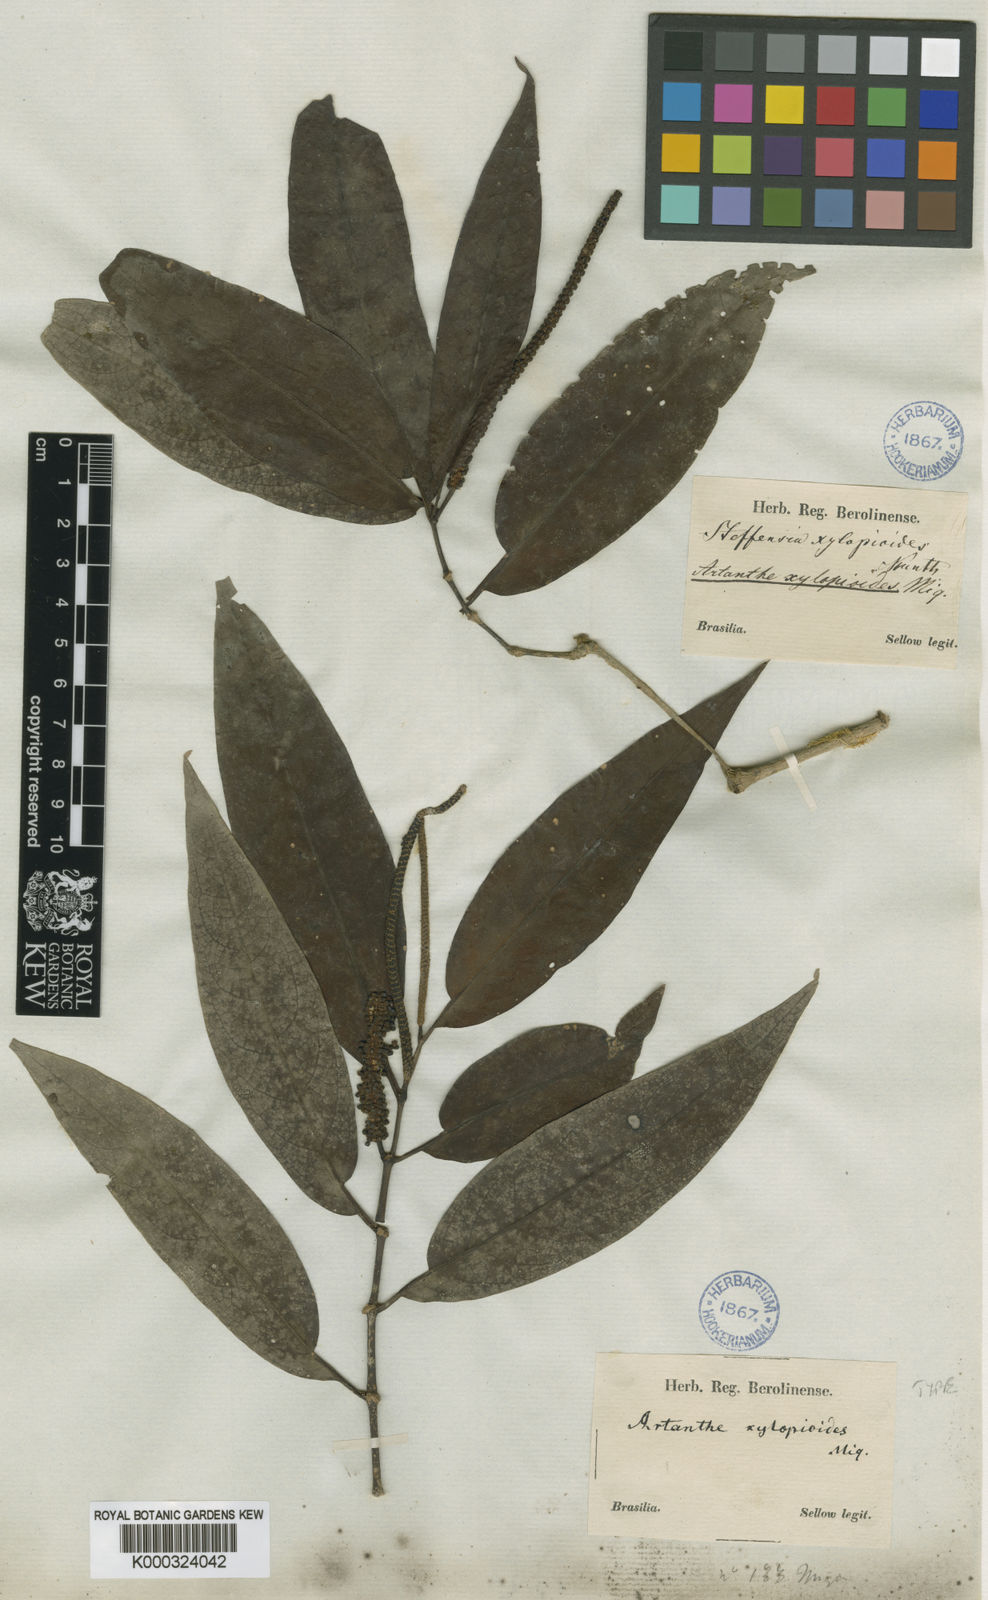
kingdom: Plantae
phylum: Tracheophyta
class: Magnoliopsida
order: Piperales
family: Piperaceae
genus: Piper
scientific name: Piper falcifolium
